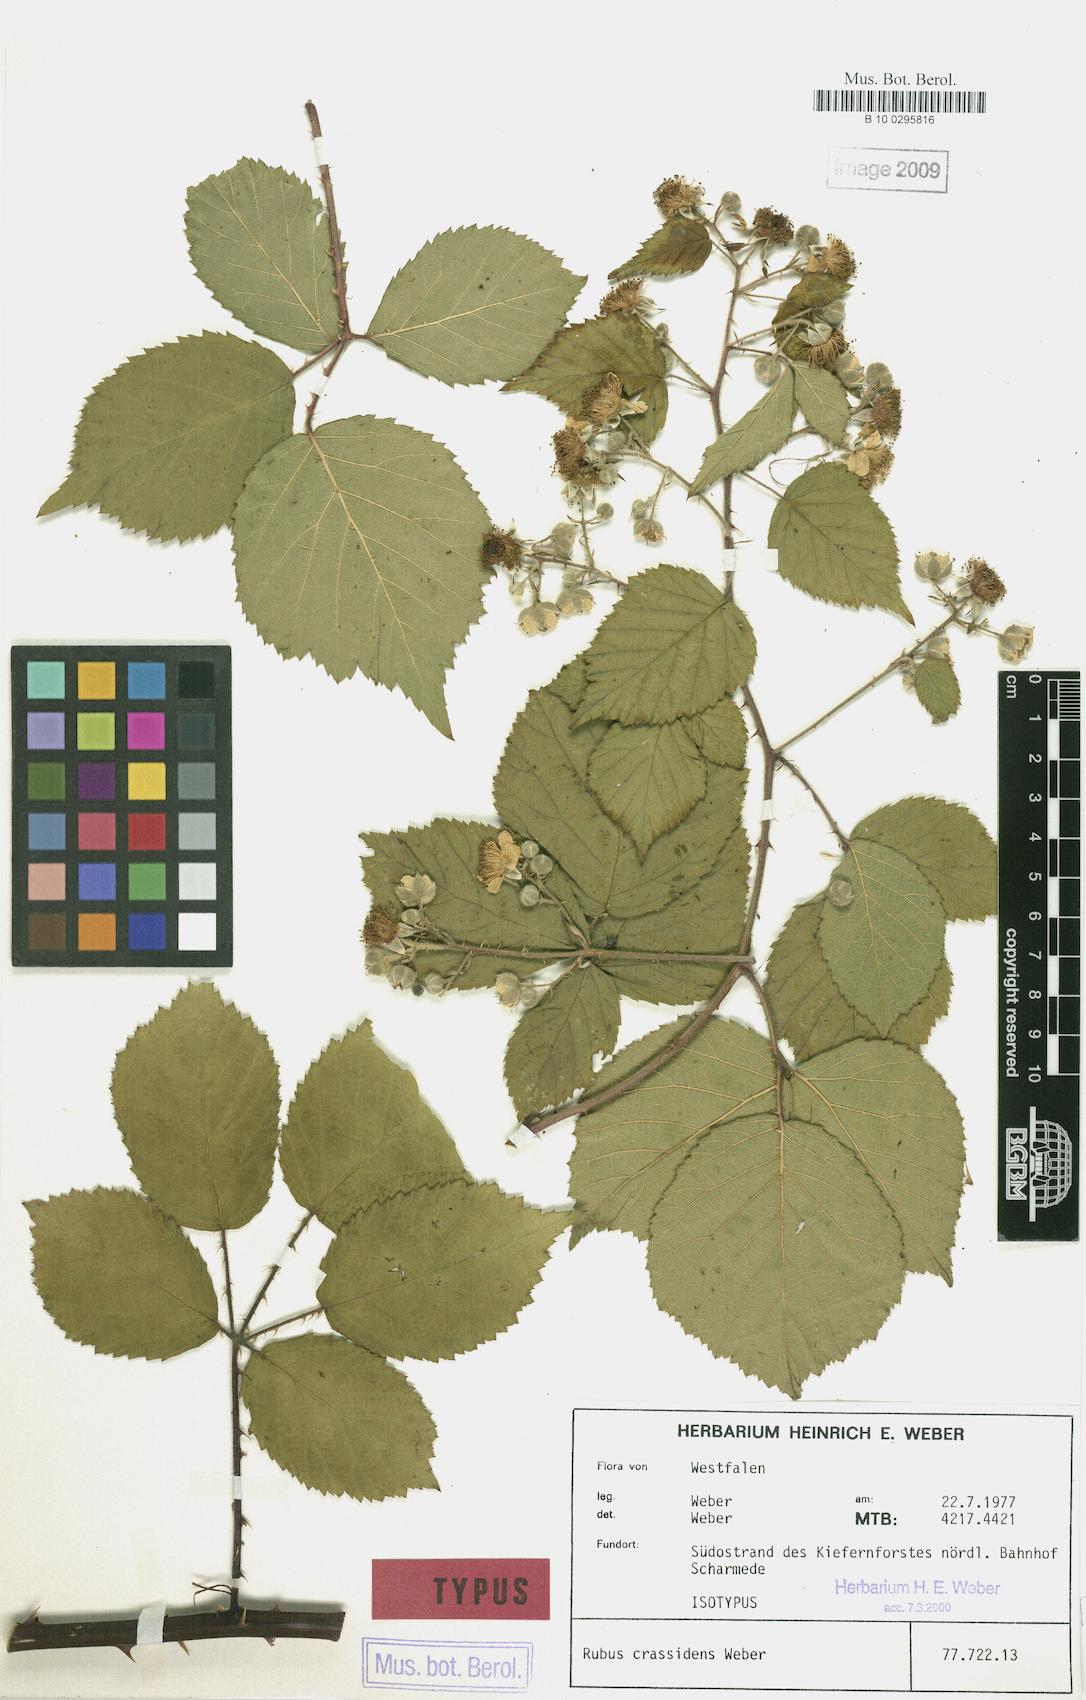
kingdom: Plantae
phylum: Tracheophyta
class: Magnoliopsida
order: Rosales
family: Rosaceae
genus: Rubus
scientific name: Rubus crassidens
